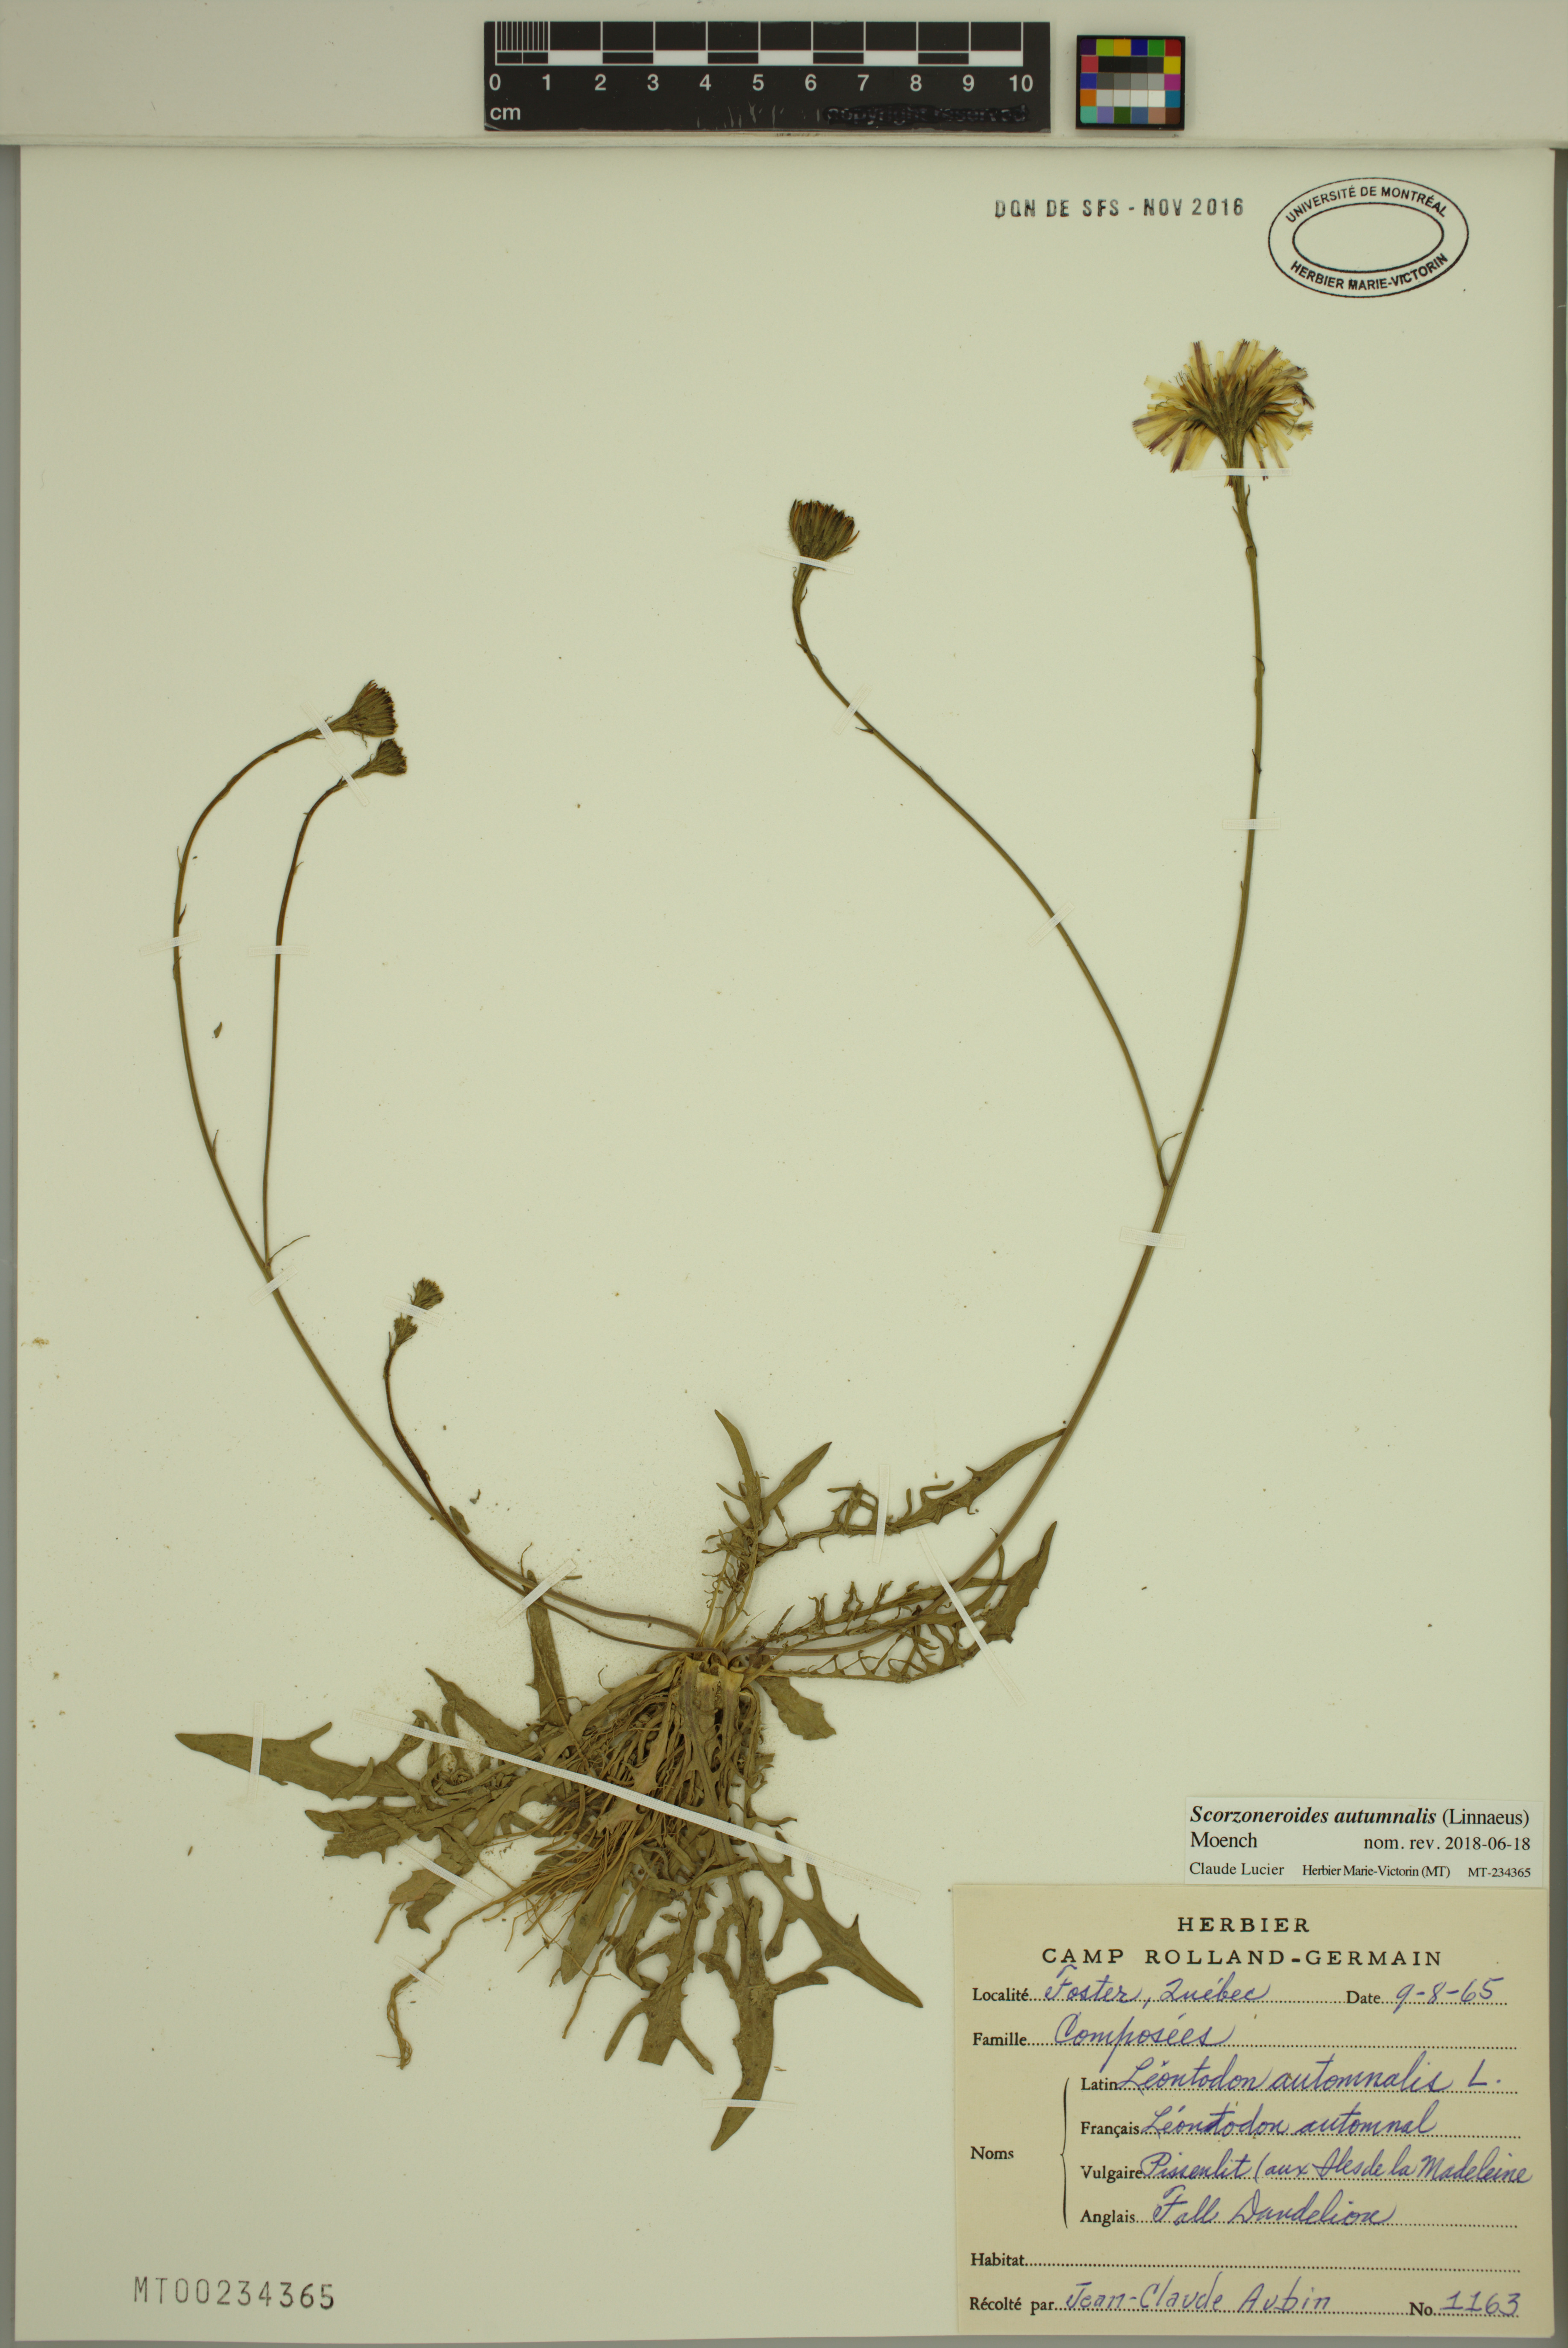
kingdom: Plantae
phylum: Tracheophyta
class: Magnoliopsida
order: Asterales
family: Asteraceae
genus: Scorzoneroides
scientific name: Scorzoneroides autumnalis
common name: Autumn hawkbit
